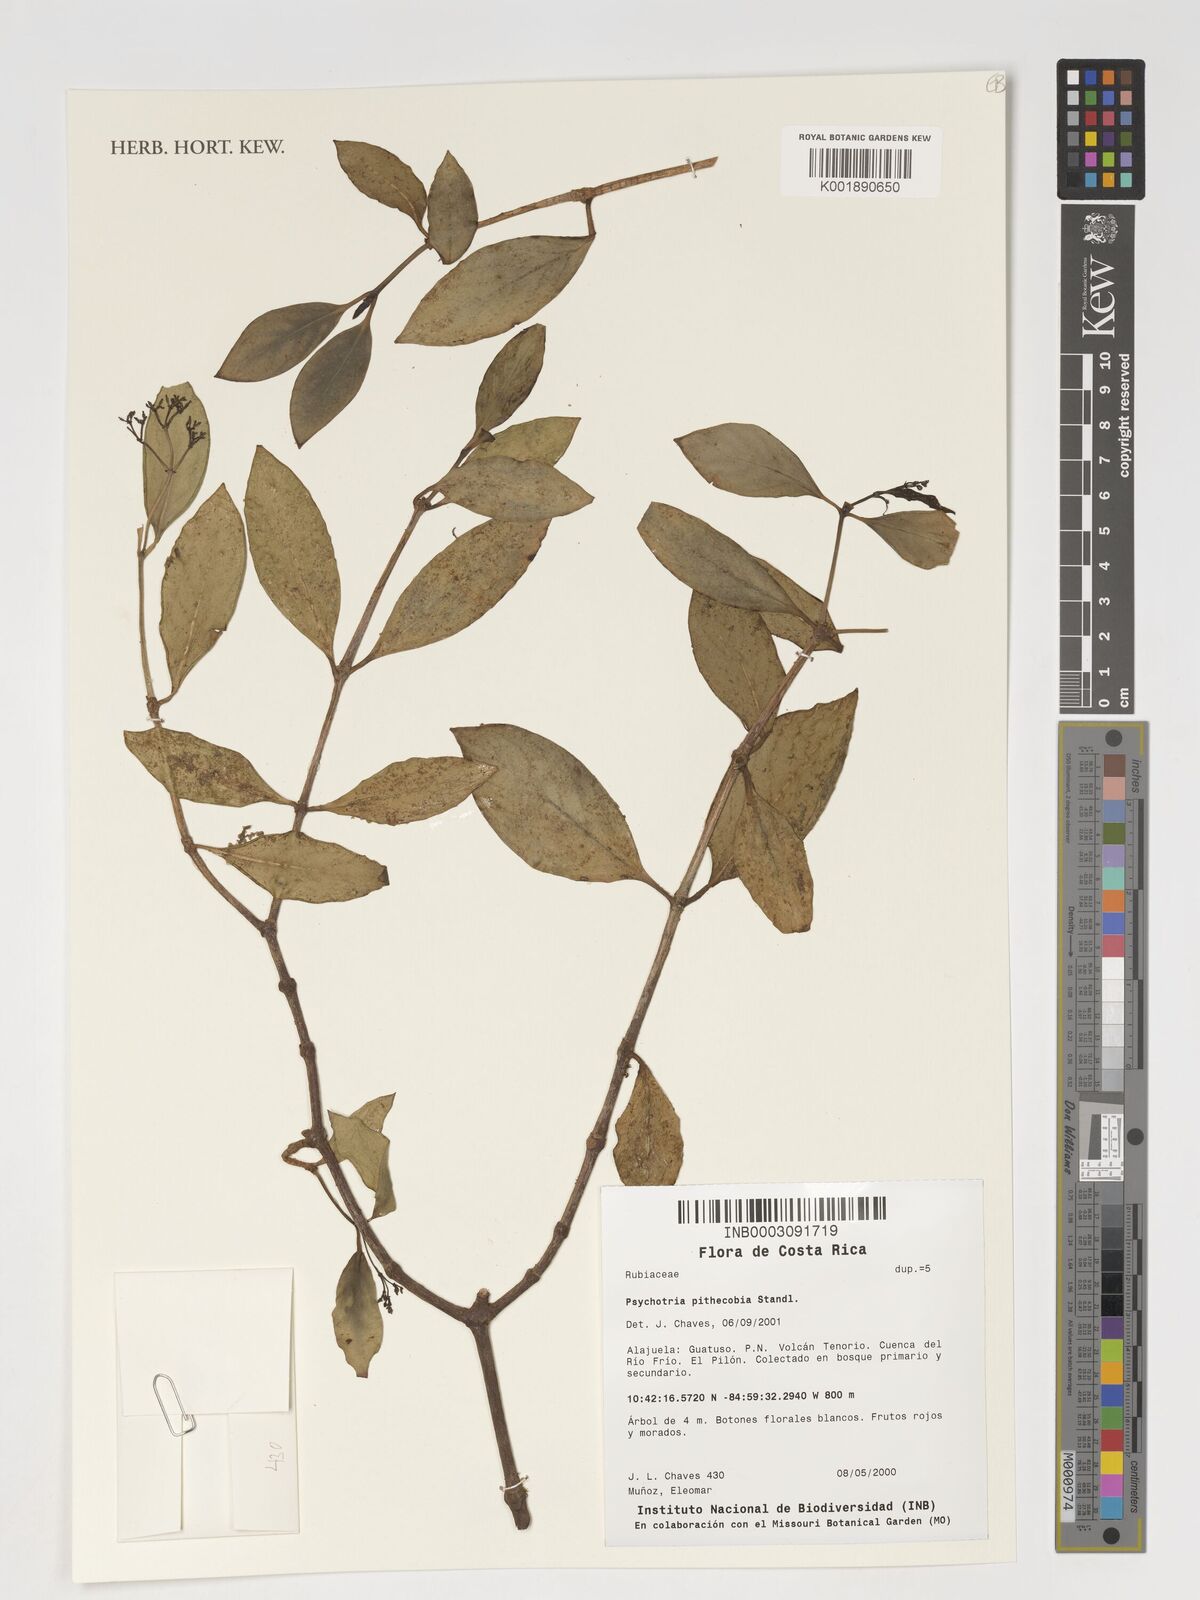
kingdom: Plantae
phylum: Tracheophyta
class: Magnoliopsida
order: Gentianales
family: Rubiaceae
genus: Notopleura
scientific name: Notopleura pithecobia
